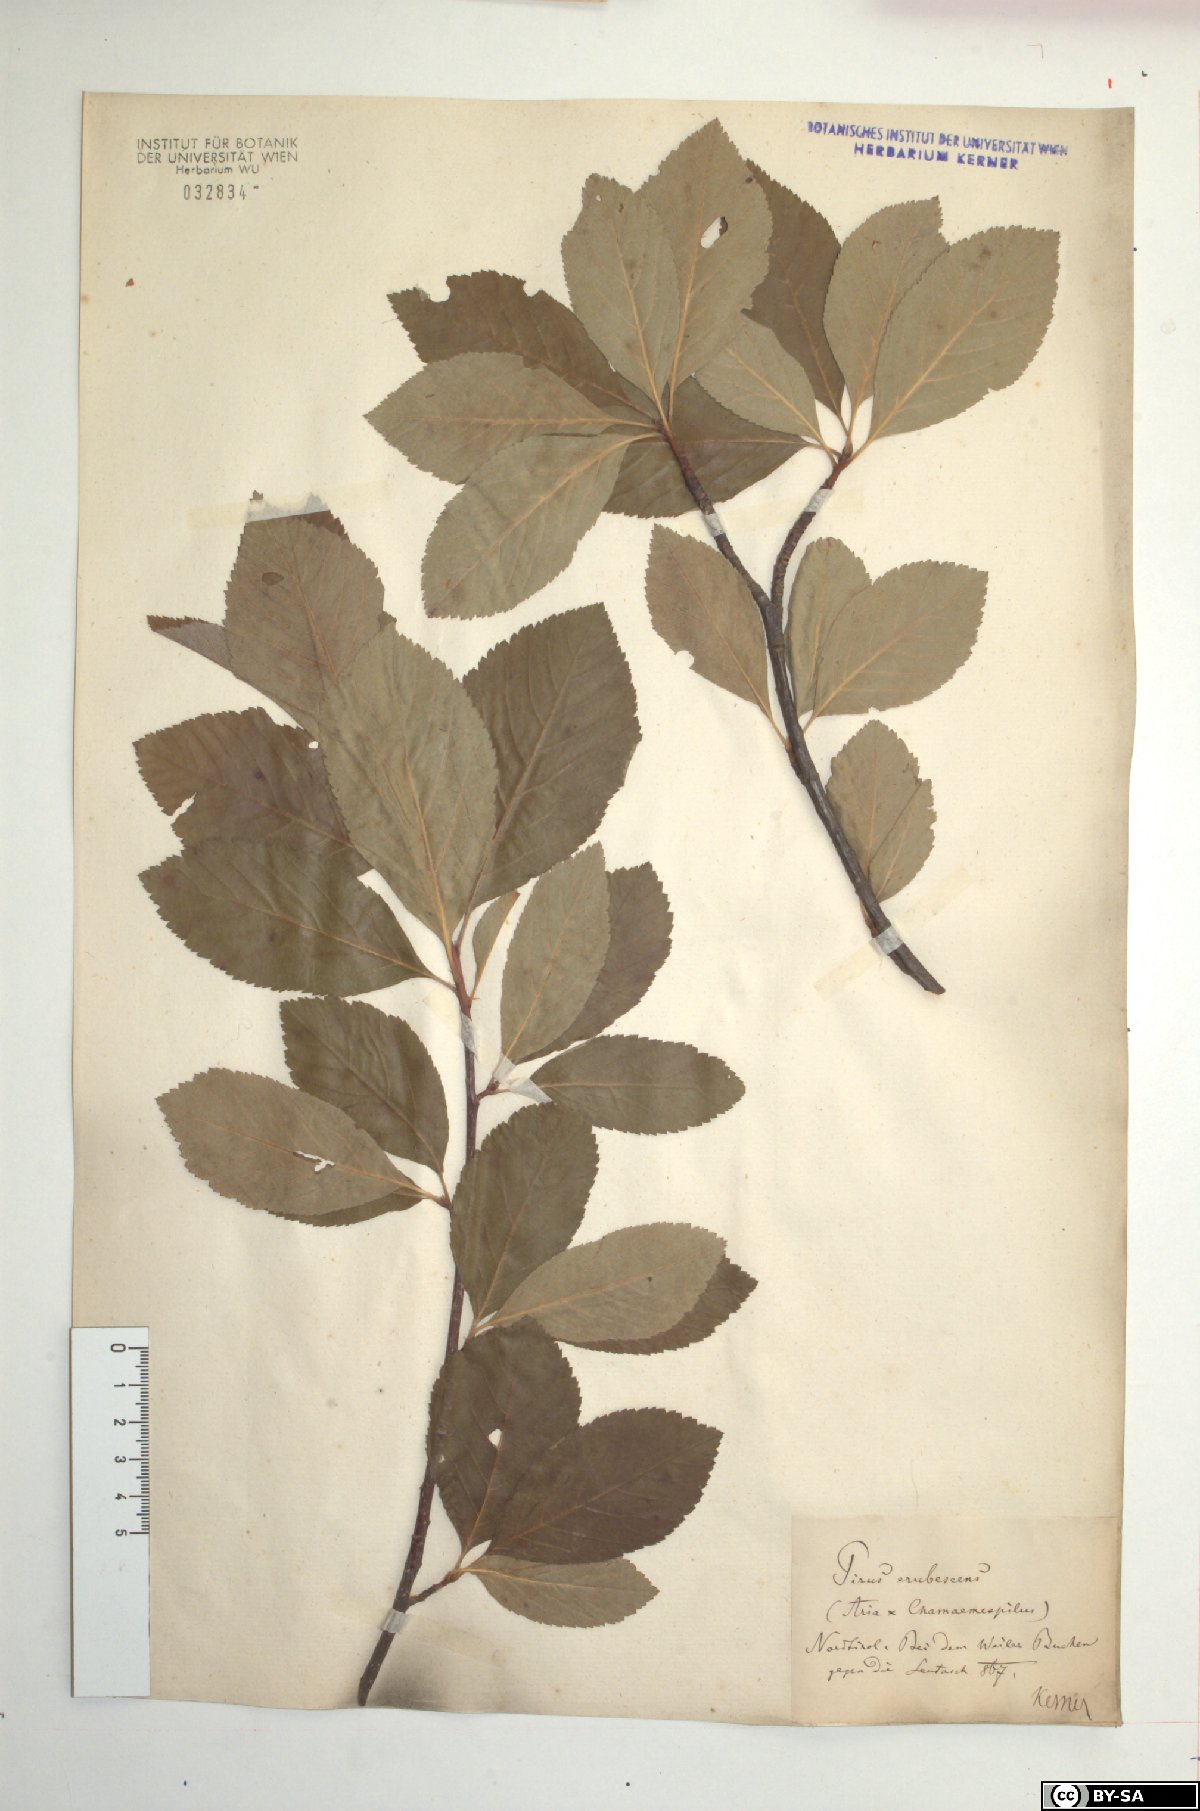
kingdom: Plantae
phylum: Tracheophyta
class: Magnoliopsida
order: Rosales
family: Rosaceae
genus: Majovskya
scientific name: Majovskya sudetica
